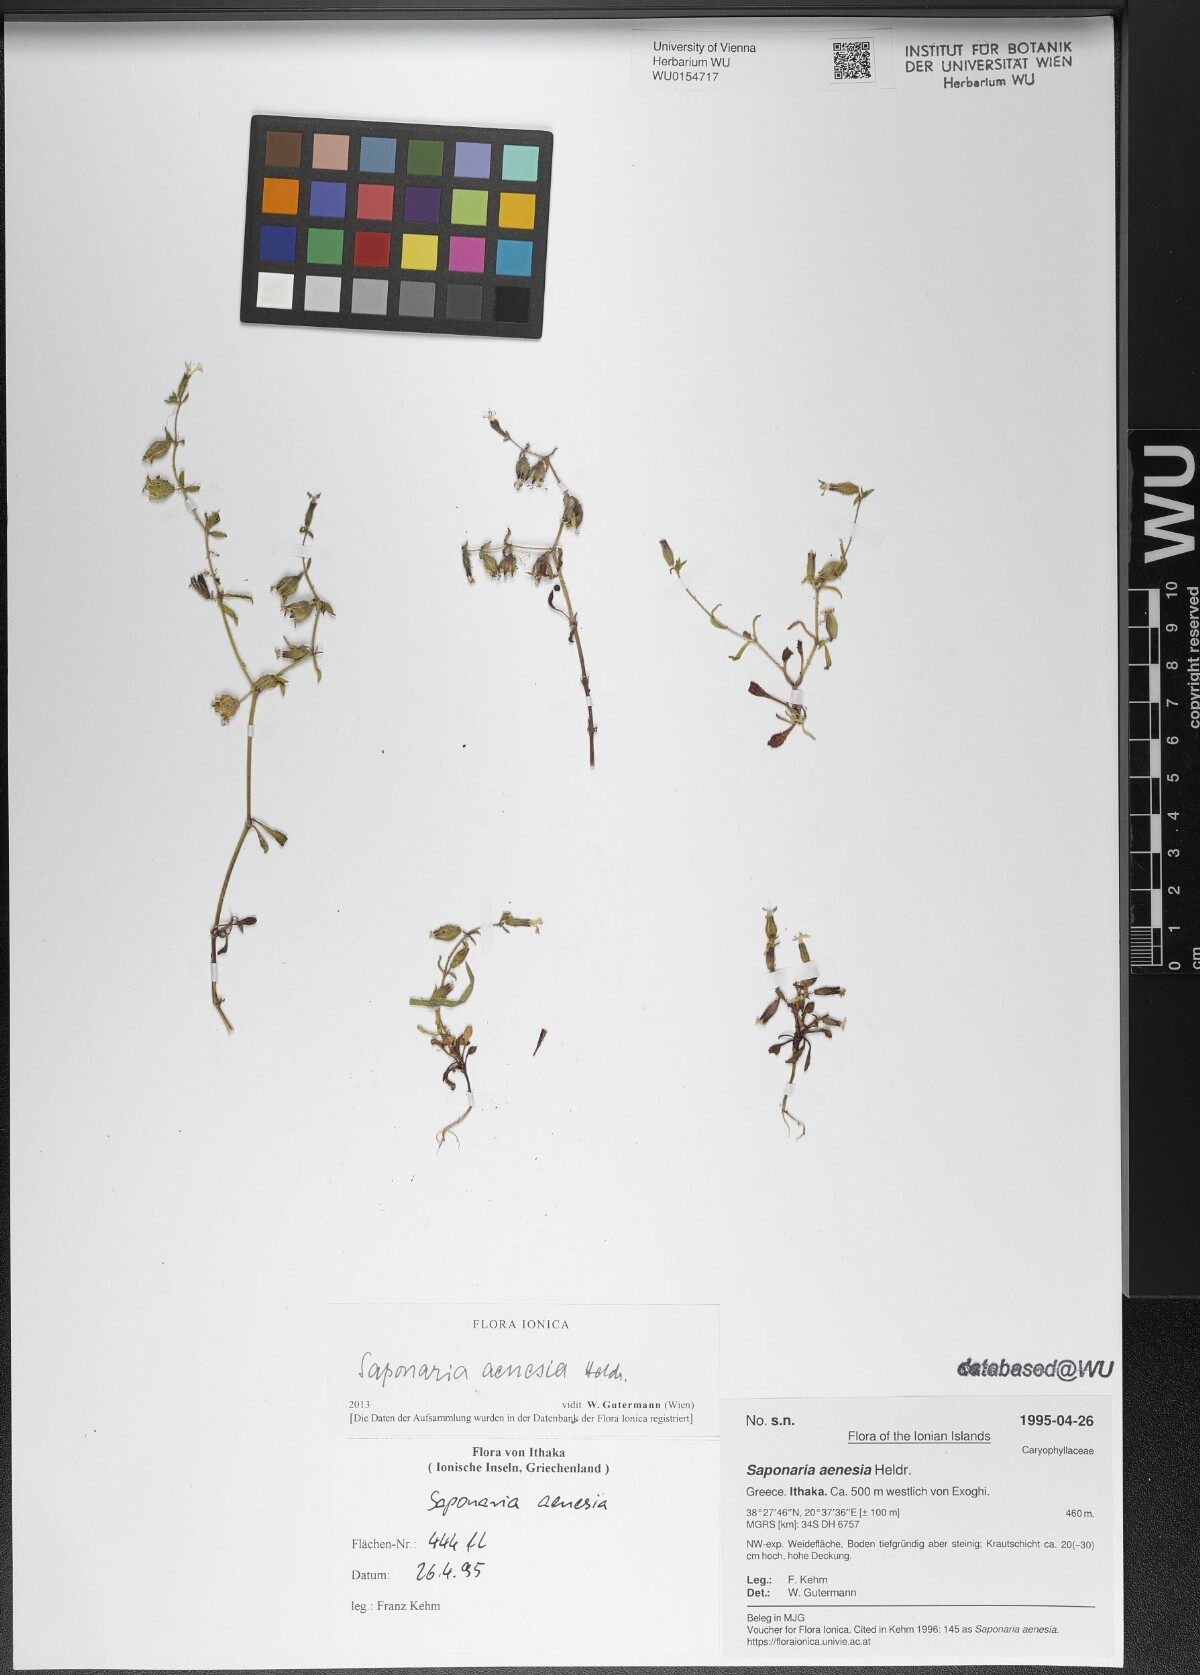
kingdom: Plantae
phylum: Tracheophyta
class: Magnoliopsida
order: Caryophyllales
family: Caryophyllaceae
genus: Saponaria
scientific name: Saponaria aenesia
